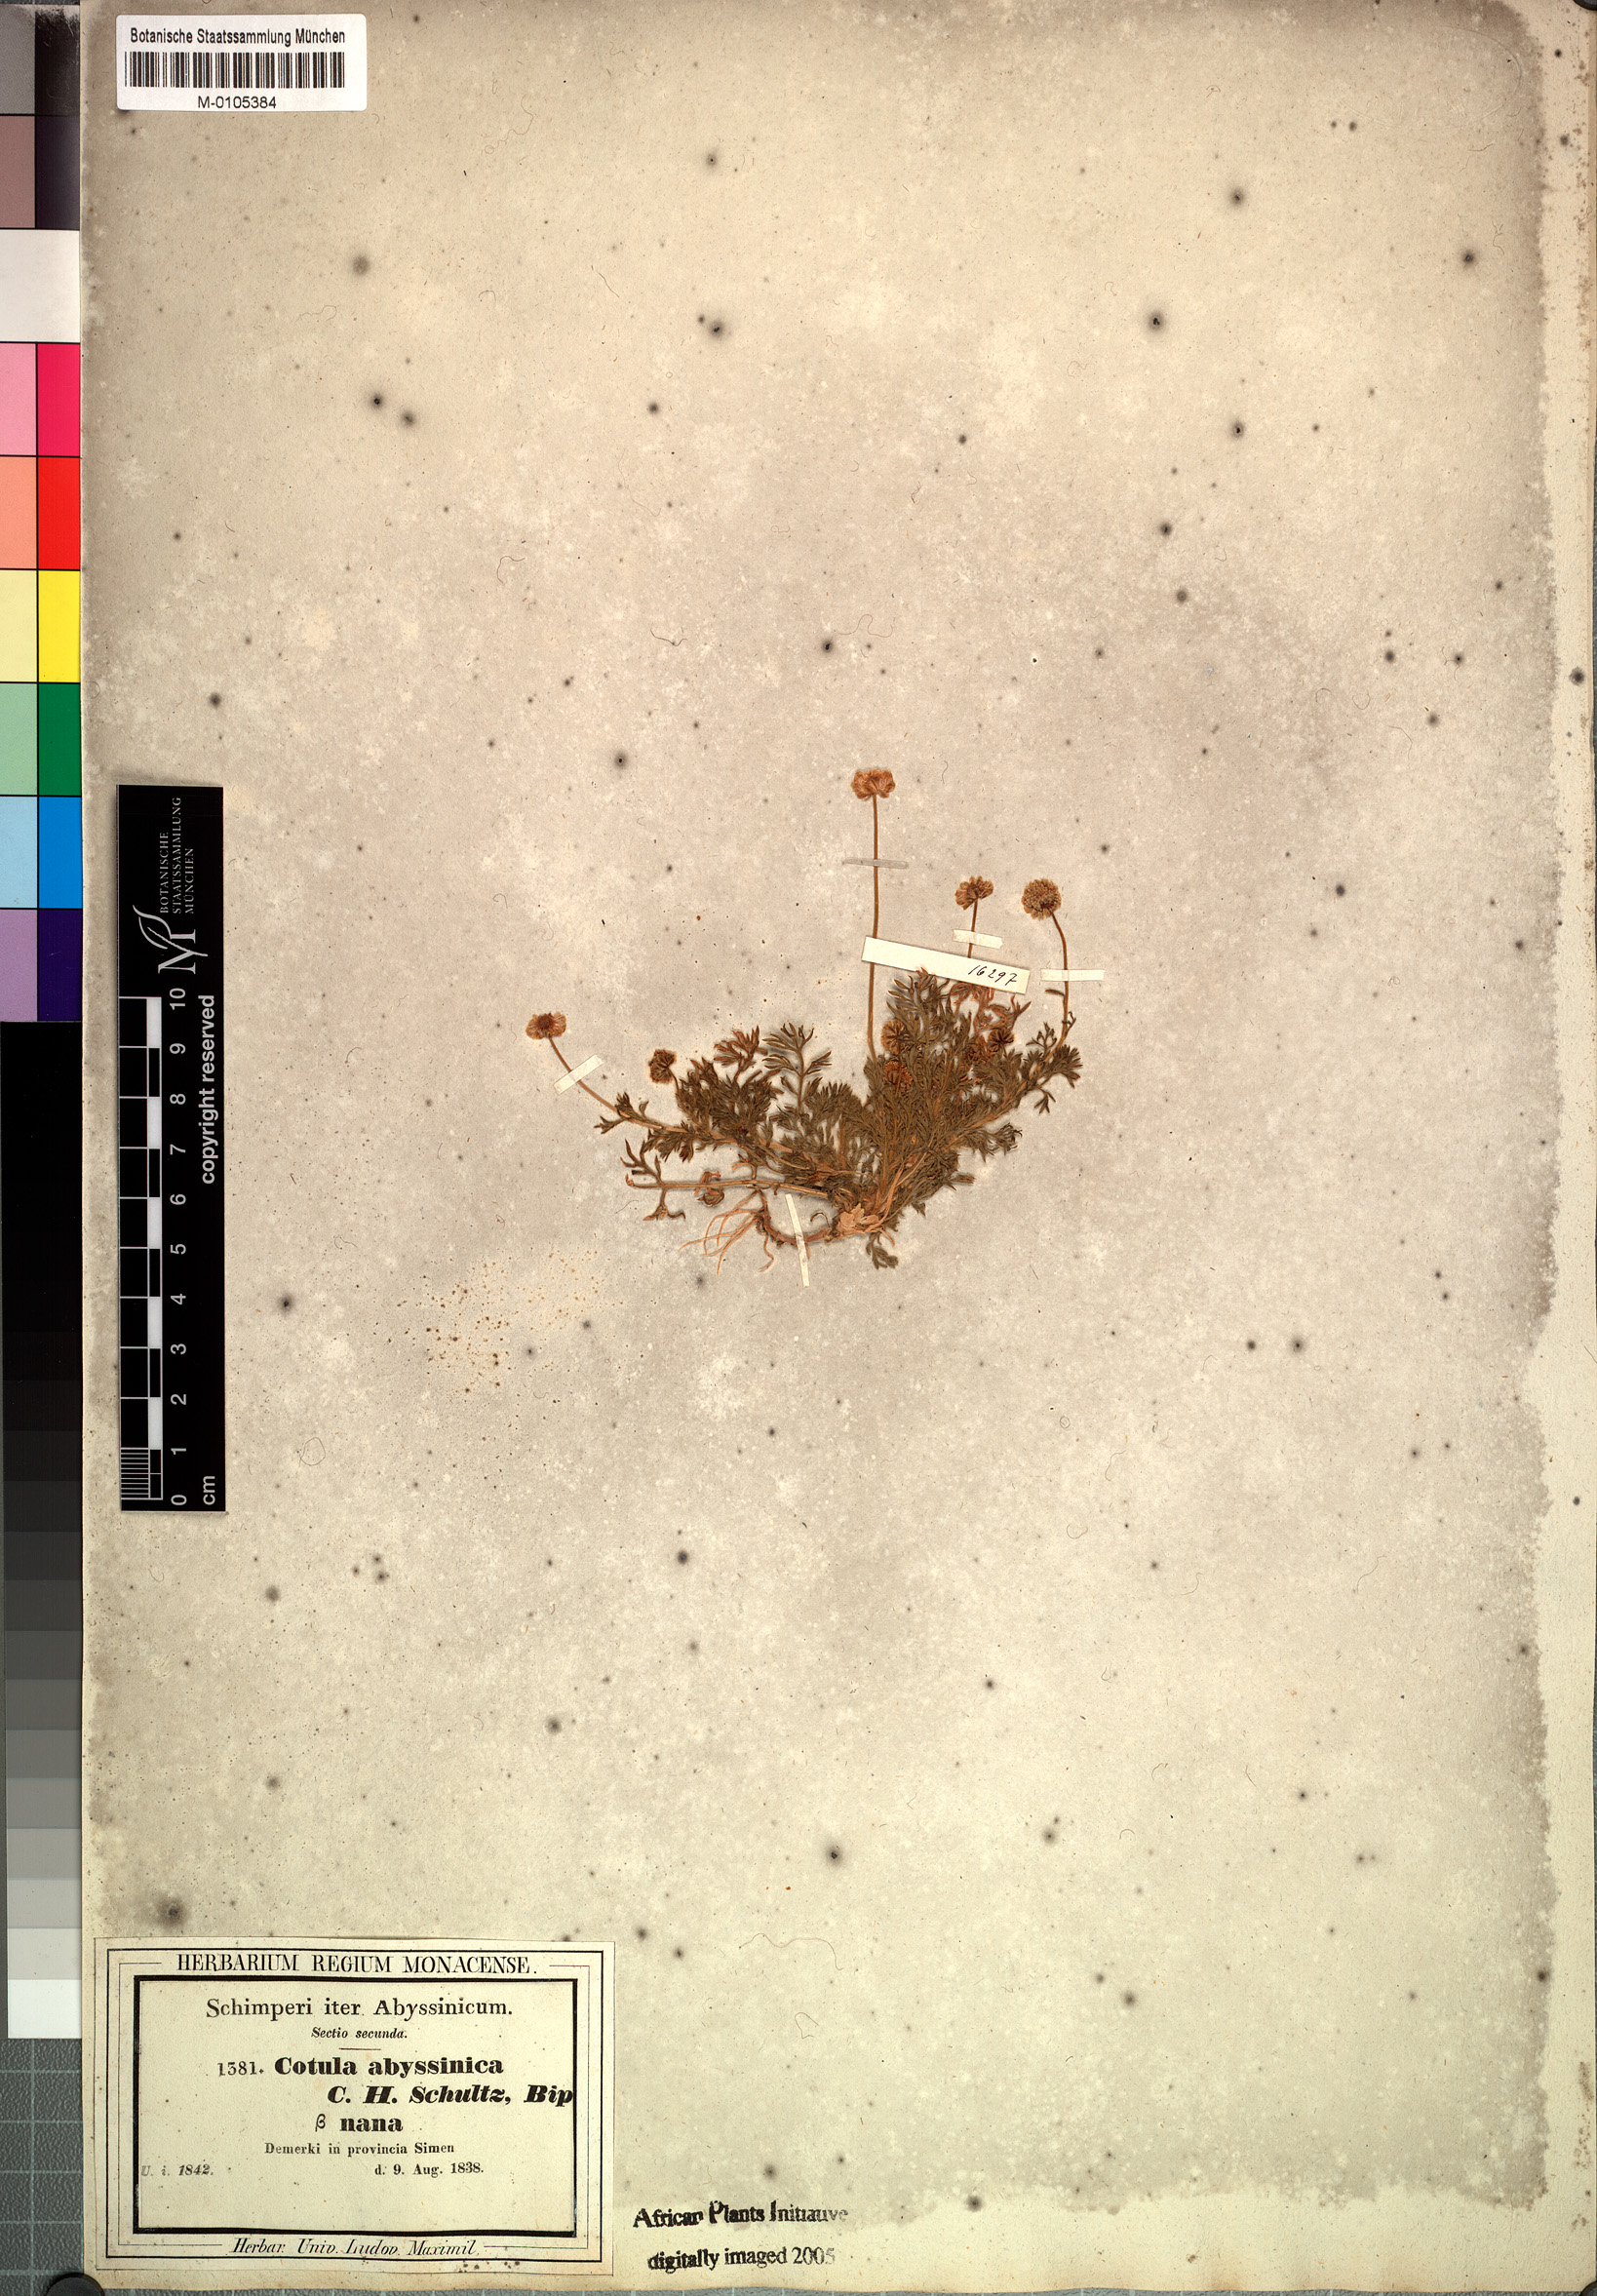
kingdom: Plantae
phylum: Tracheophyta
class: Magnoliopsida
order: Asterales
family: Asteraceae
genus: Cotula
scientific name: Cotula abyssinica
